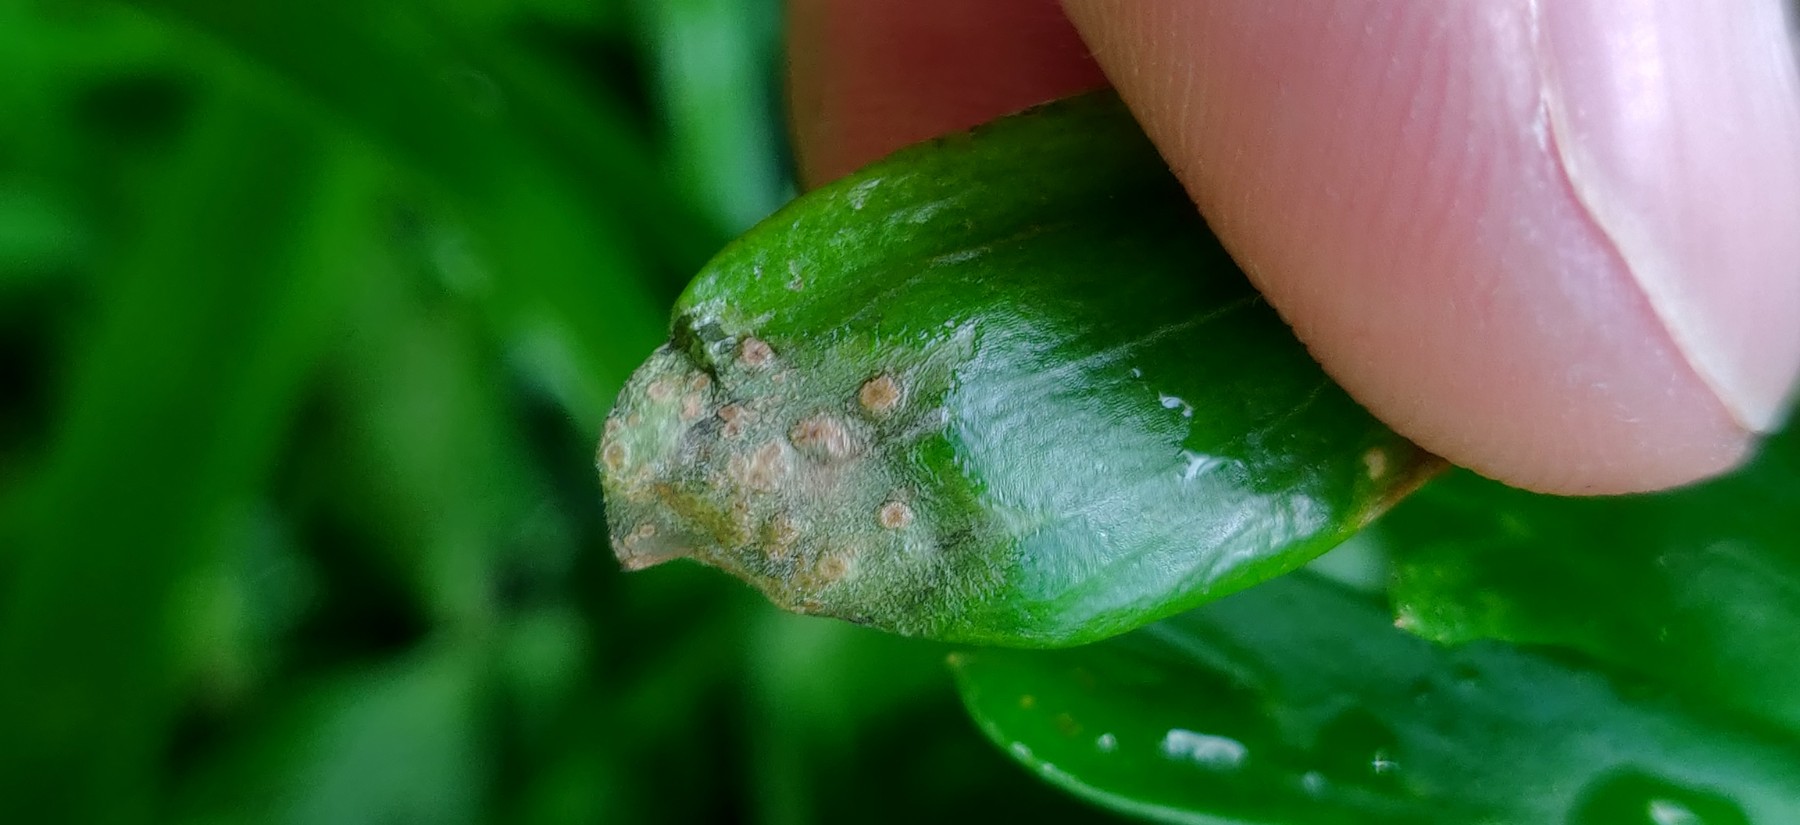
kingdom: Fungi
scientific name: Fungi
